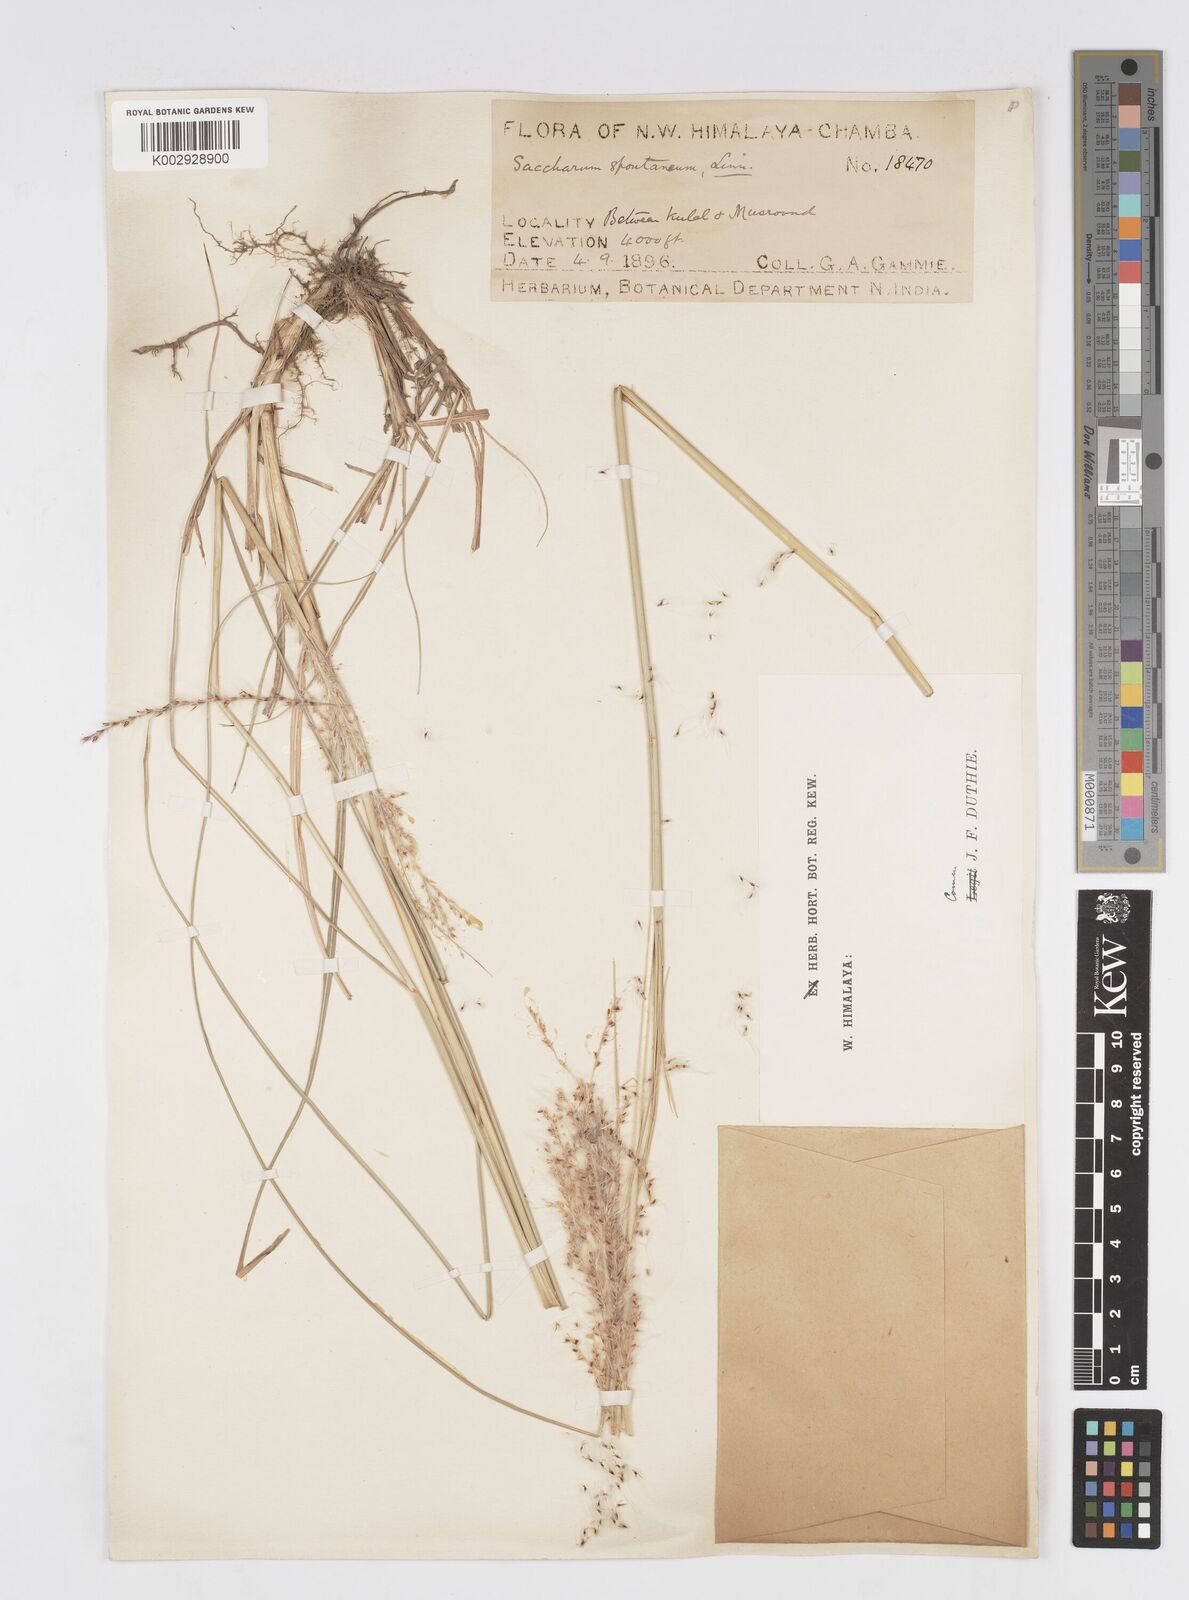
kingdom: Plantae
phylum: Tracheophyta
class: Liliopsida
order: Poales
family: Poaceae
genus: Saccharum
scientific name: Saccharum spontaneum
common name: Wild sugarcane
